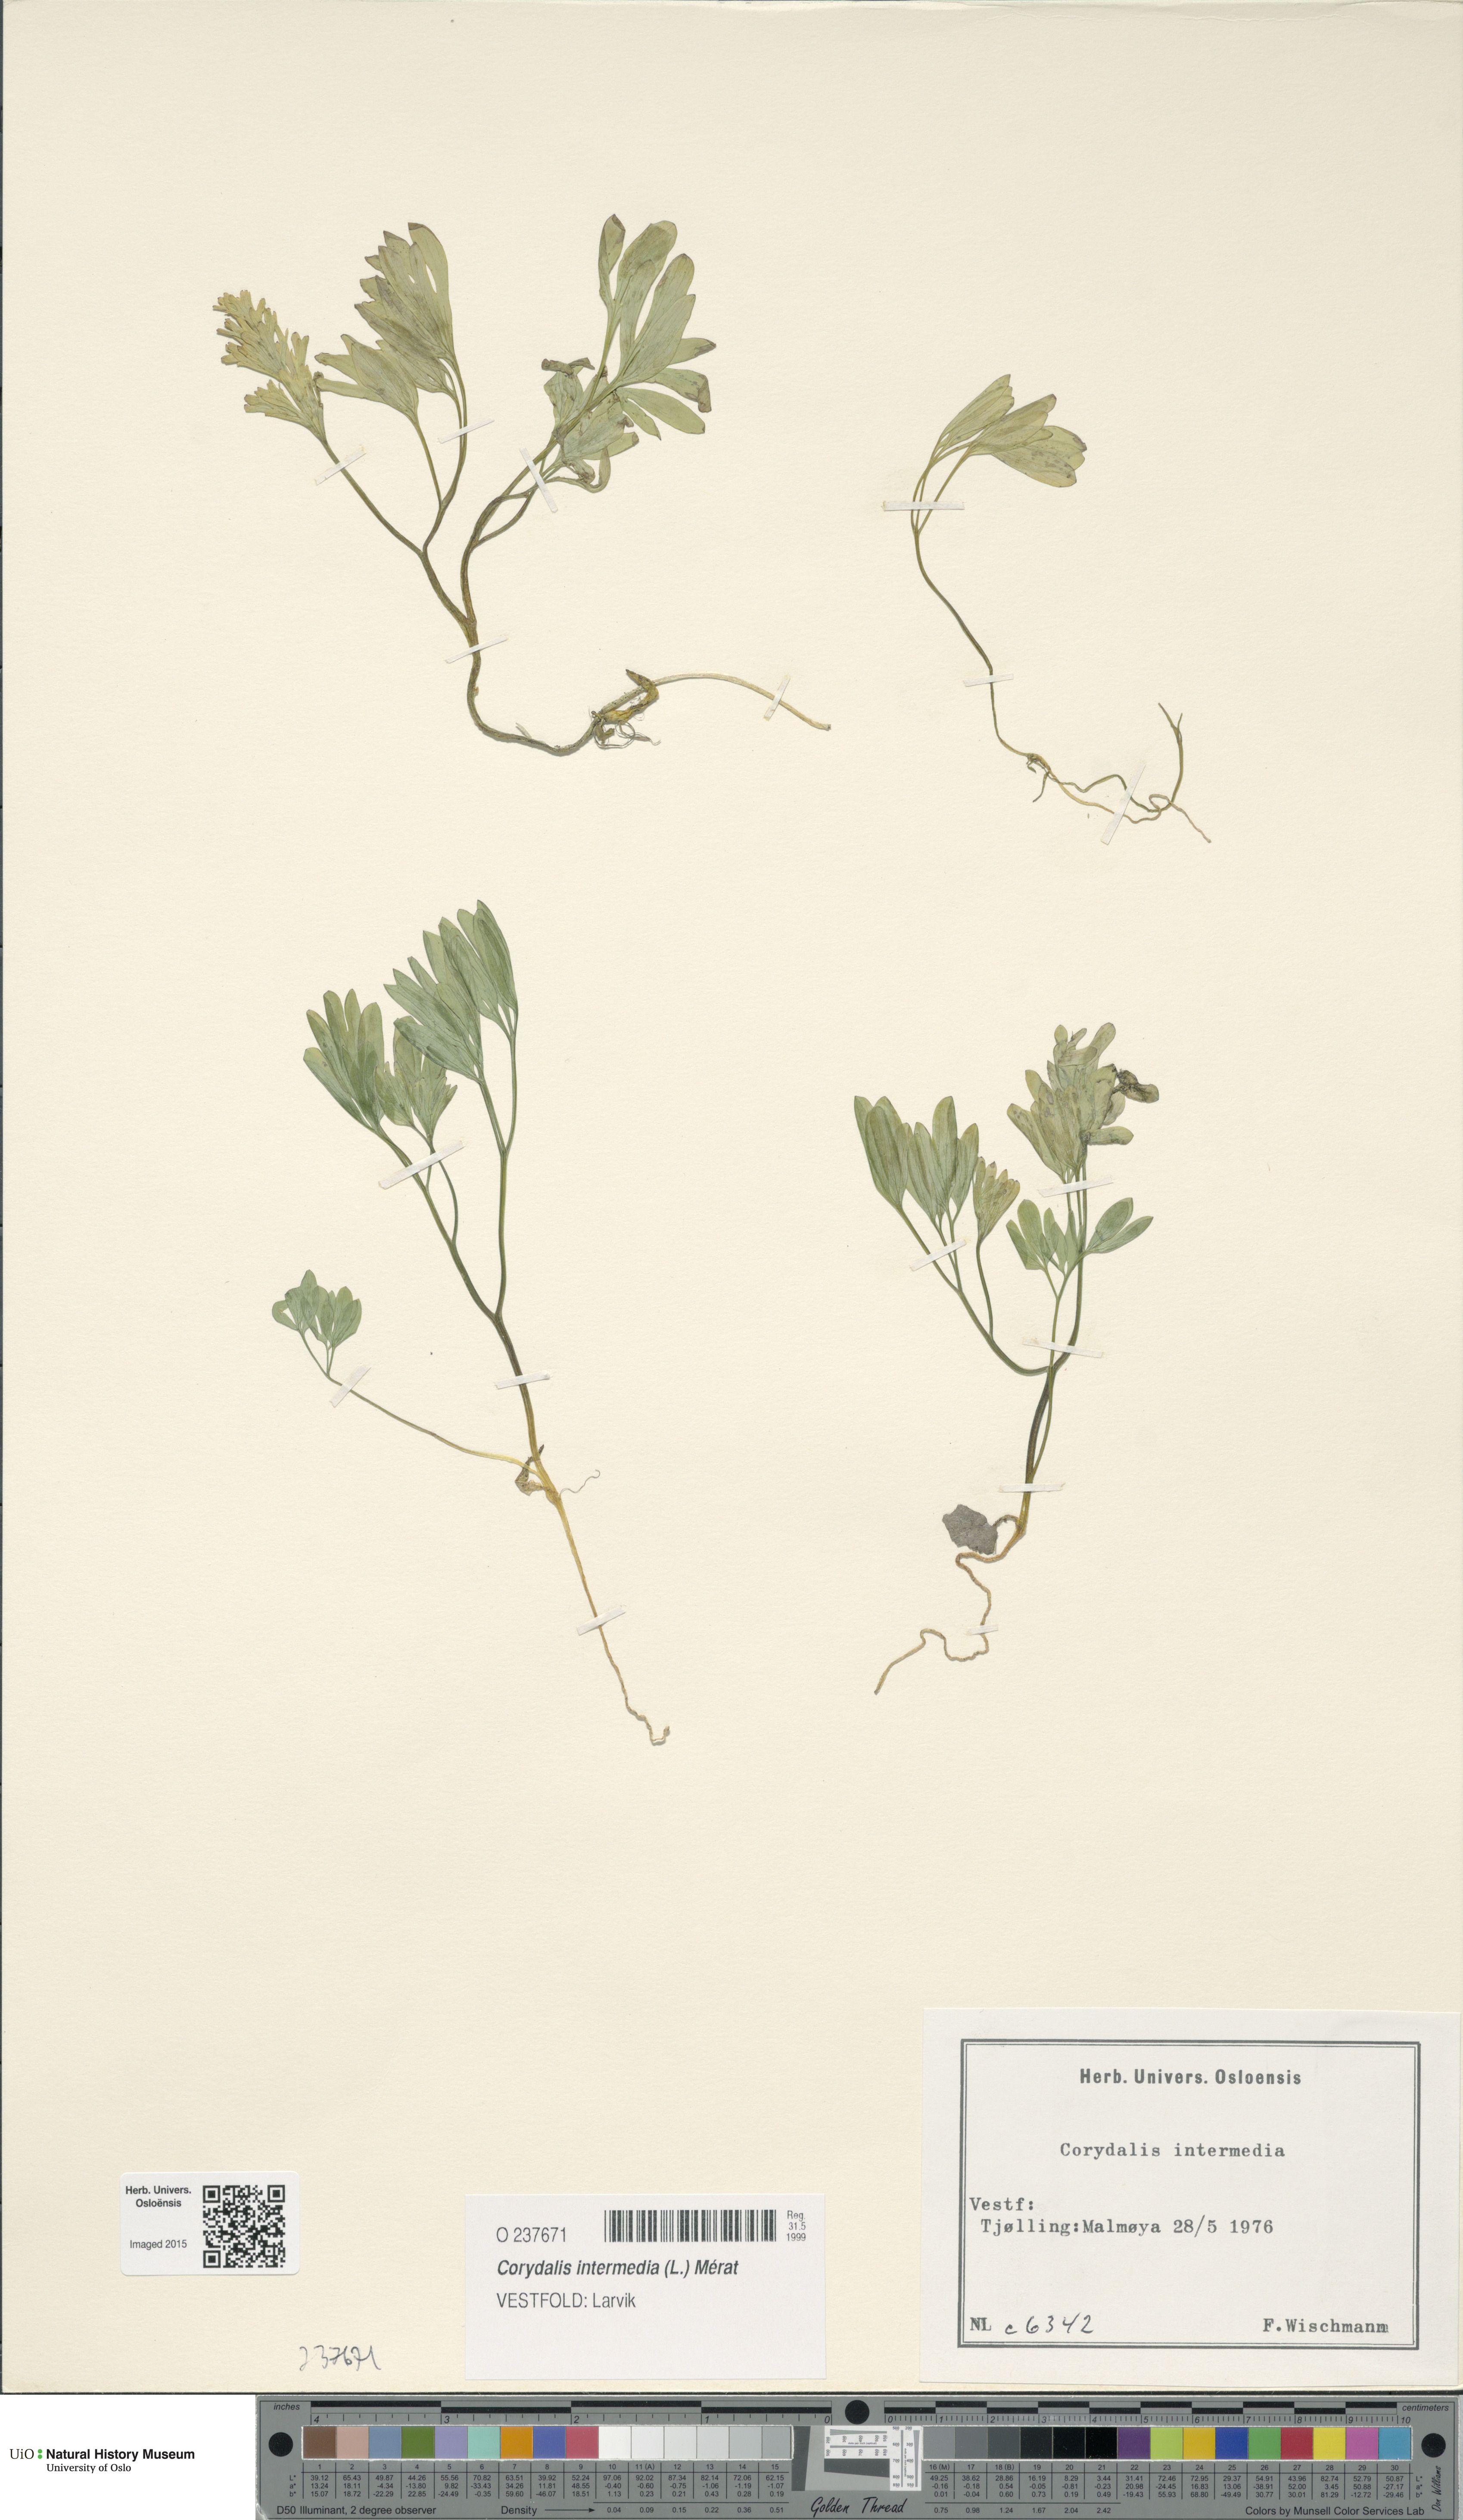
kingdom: Plantae
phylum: Tracheophyta
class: Magnoliopsida
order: Ranunculales
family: Papaveraceae
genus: Corydalis
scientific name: Corydalis intermedia
